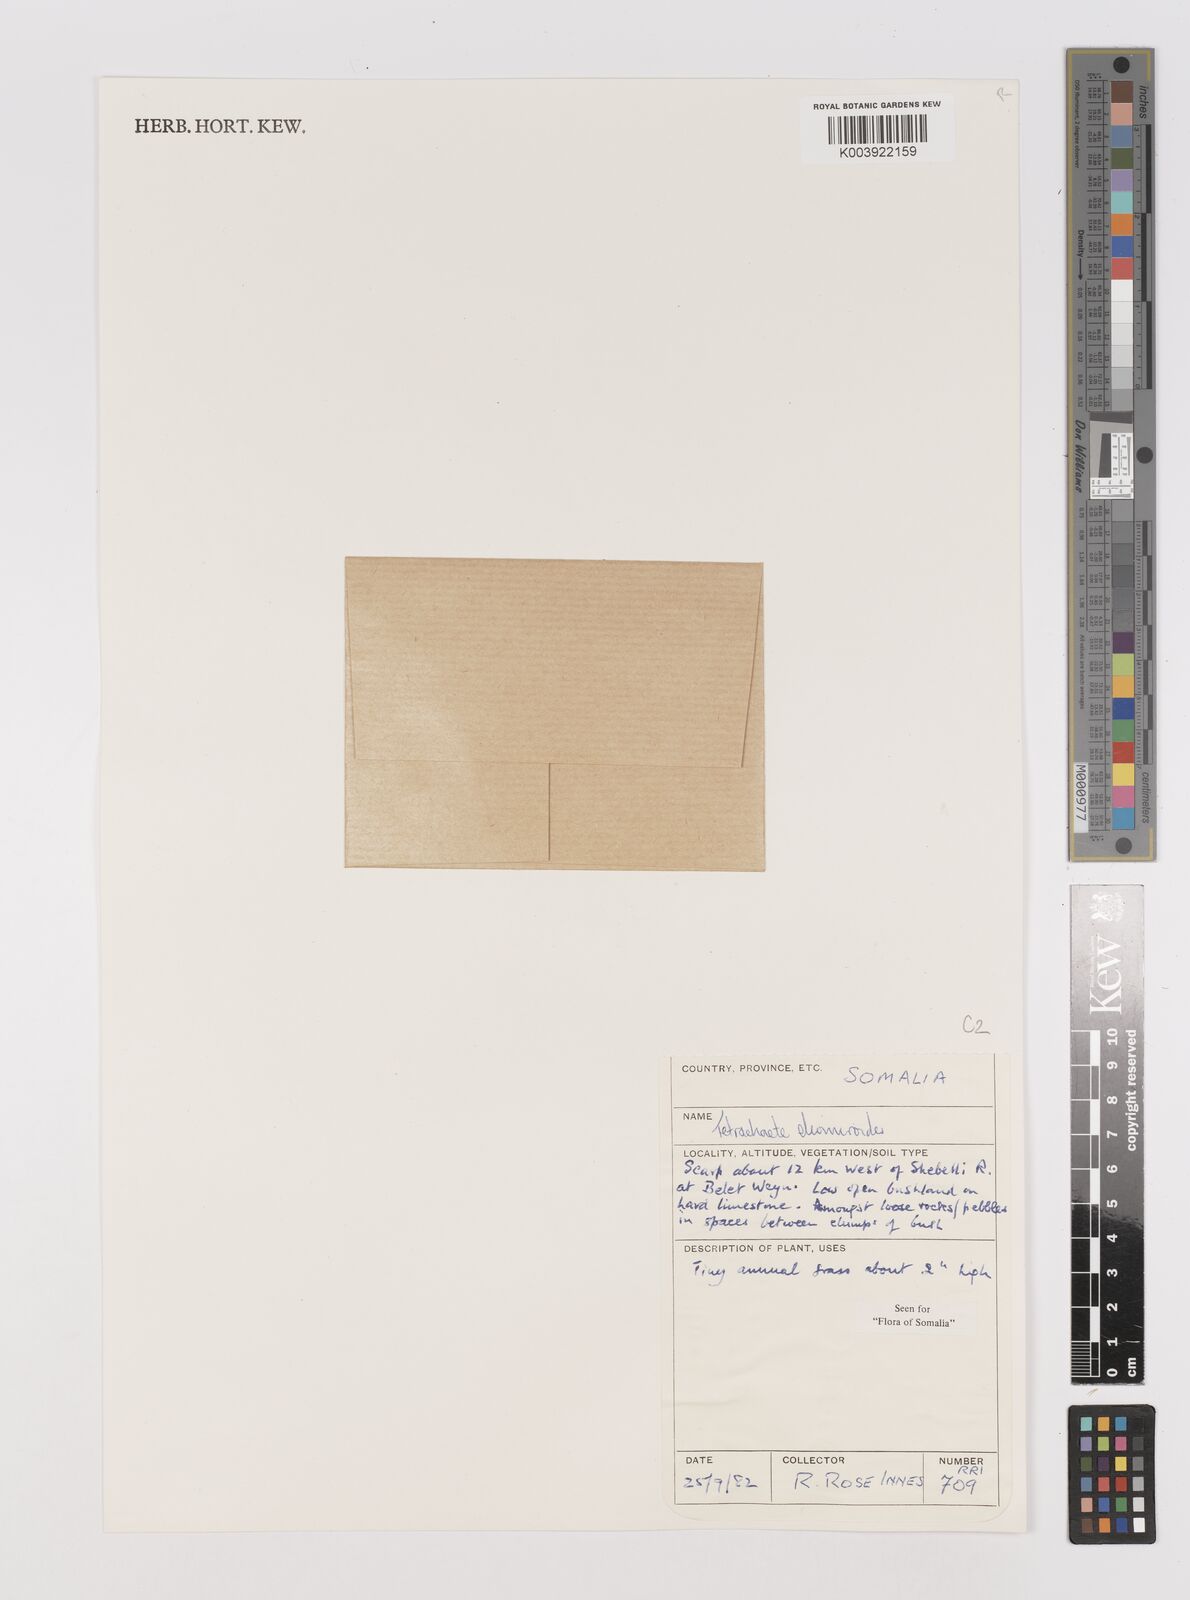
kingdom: Plantae
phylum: Tracheophyta
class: Liliopsida
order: Poales
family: Poaceae
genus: Tetrachaete
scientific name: Tetrachaete elionuroides
